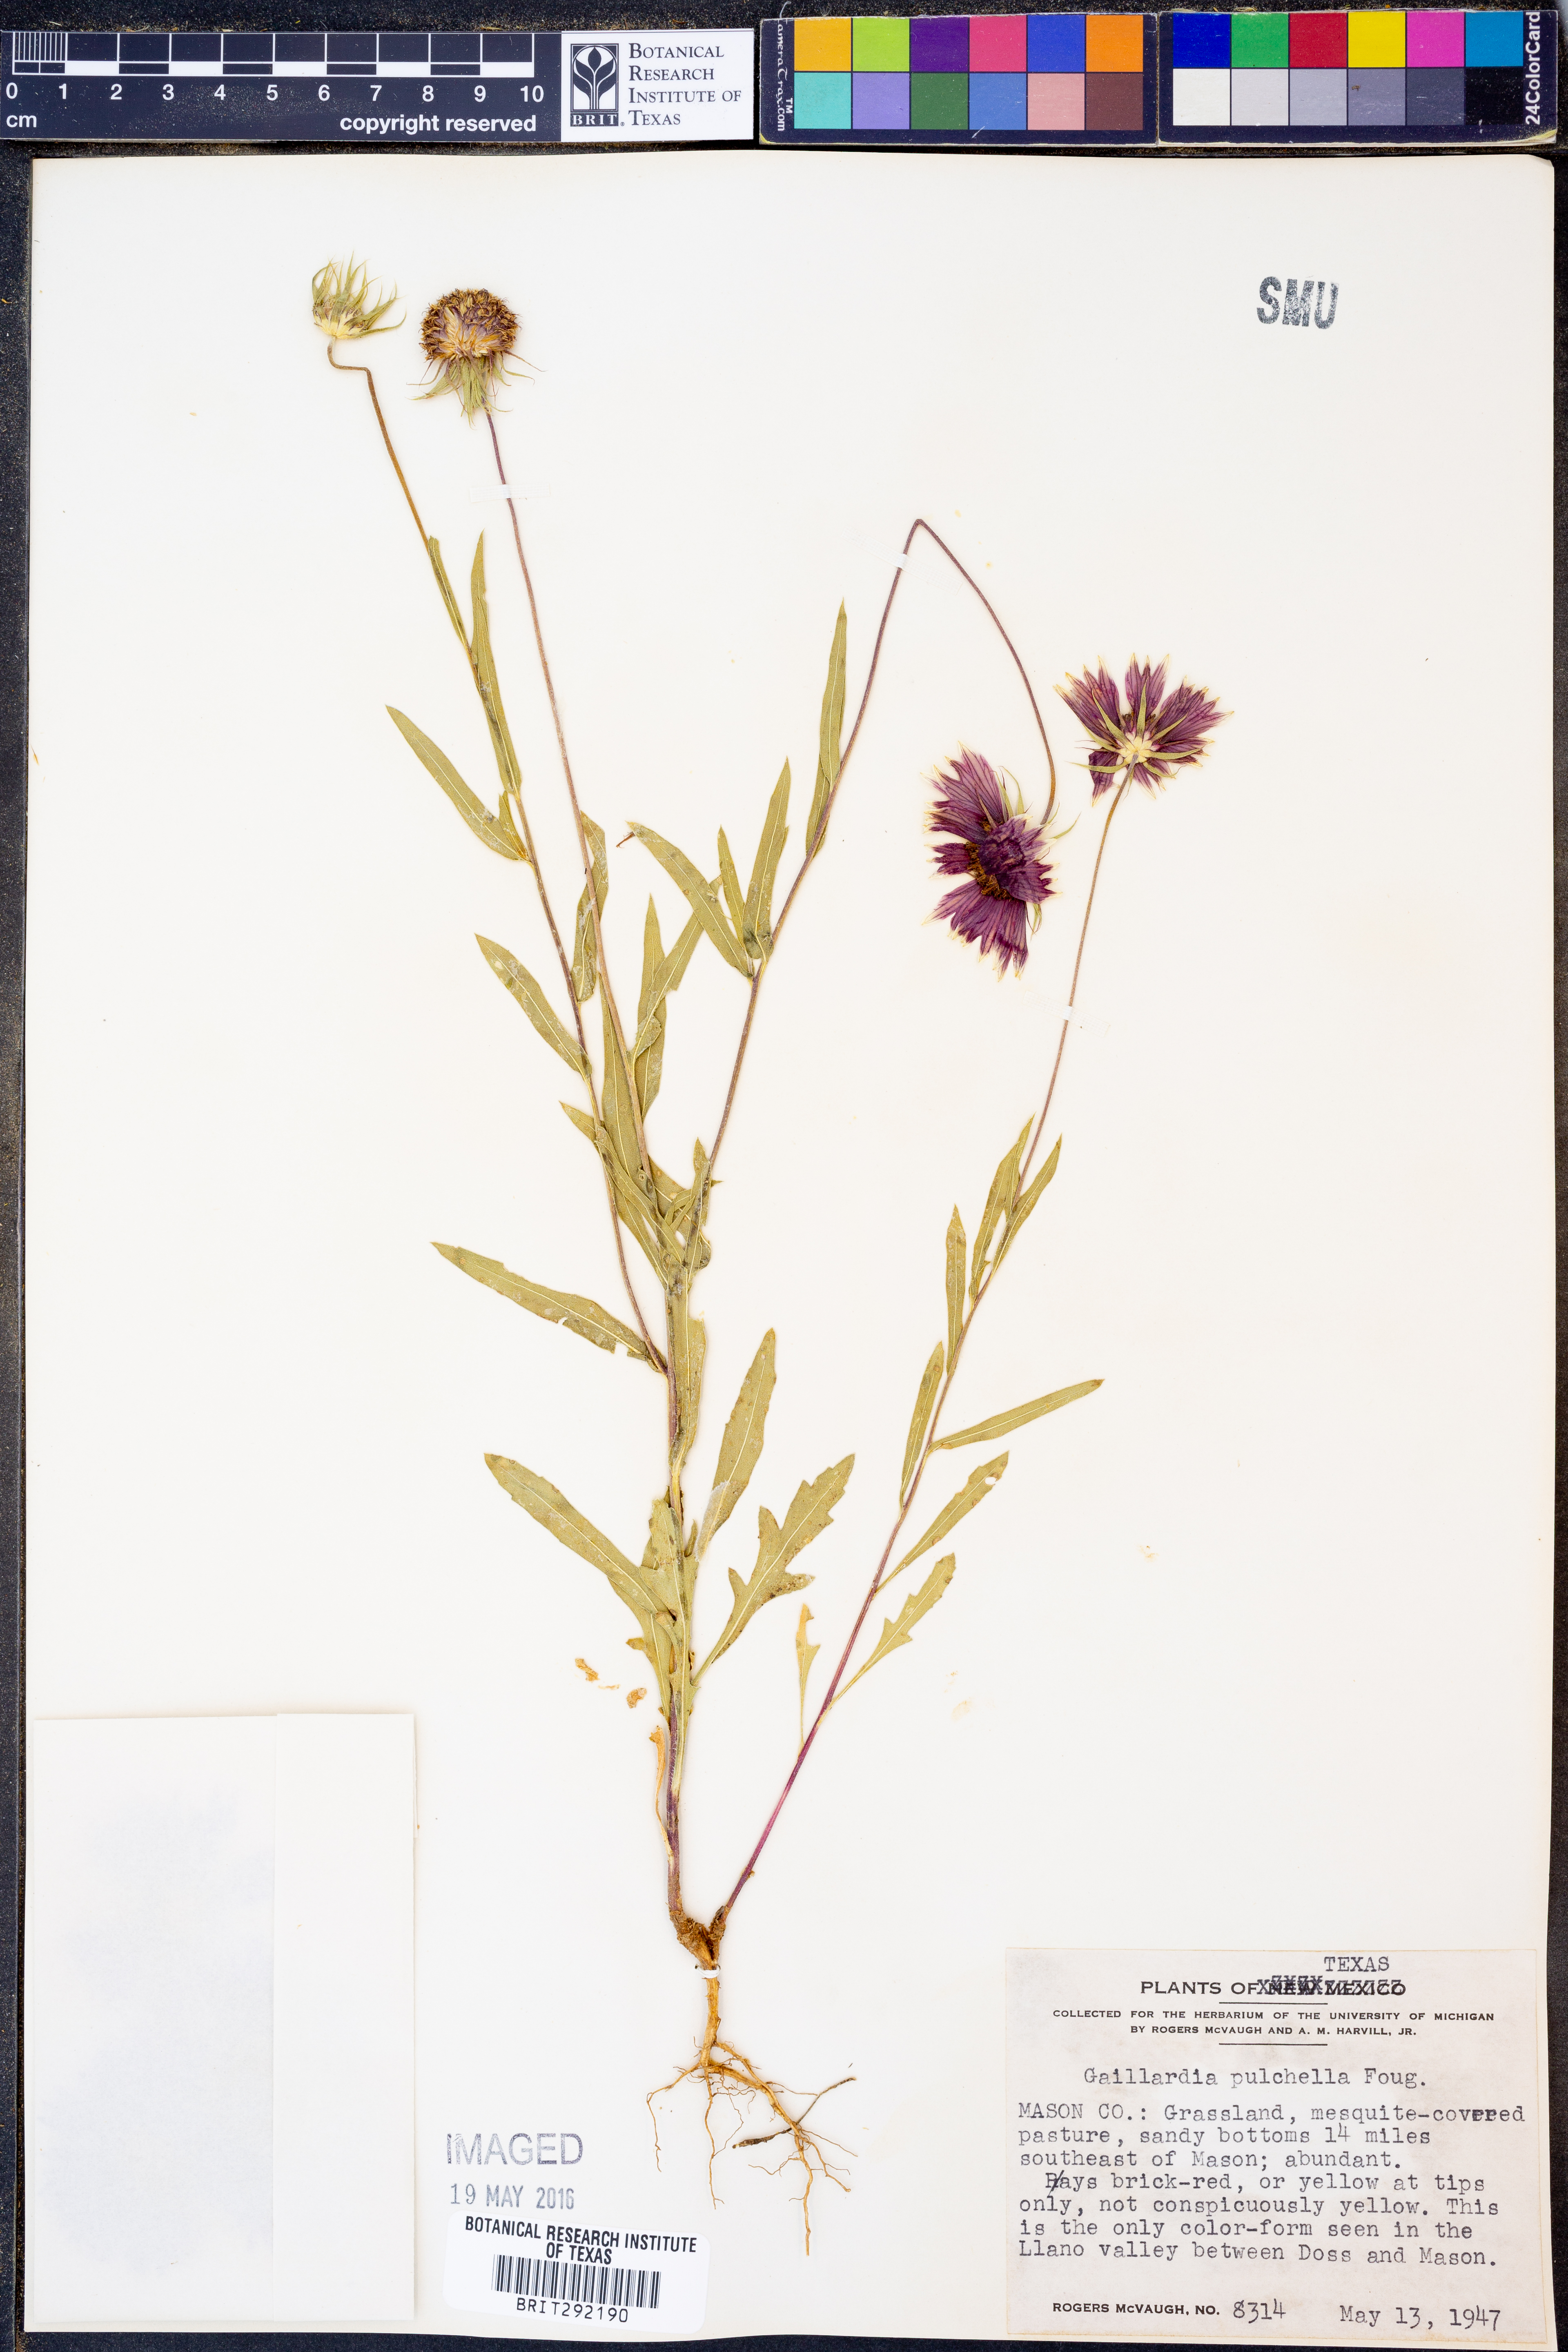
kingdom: Plantae
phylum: Tracheophyta
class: Magnoliopsida
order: Asterales
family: Asteraceae
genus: Gaillardia
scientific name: Gaillardia pulchella
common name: Firewheel
